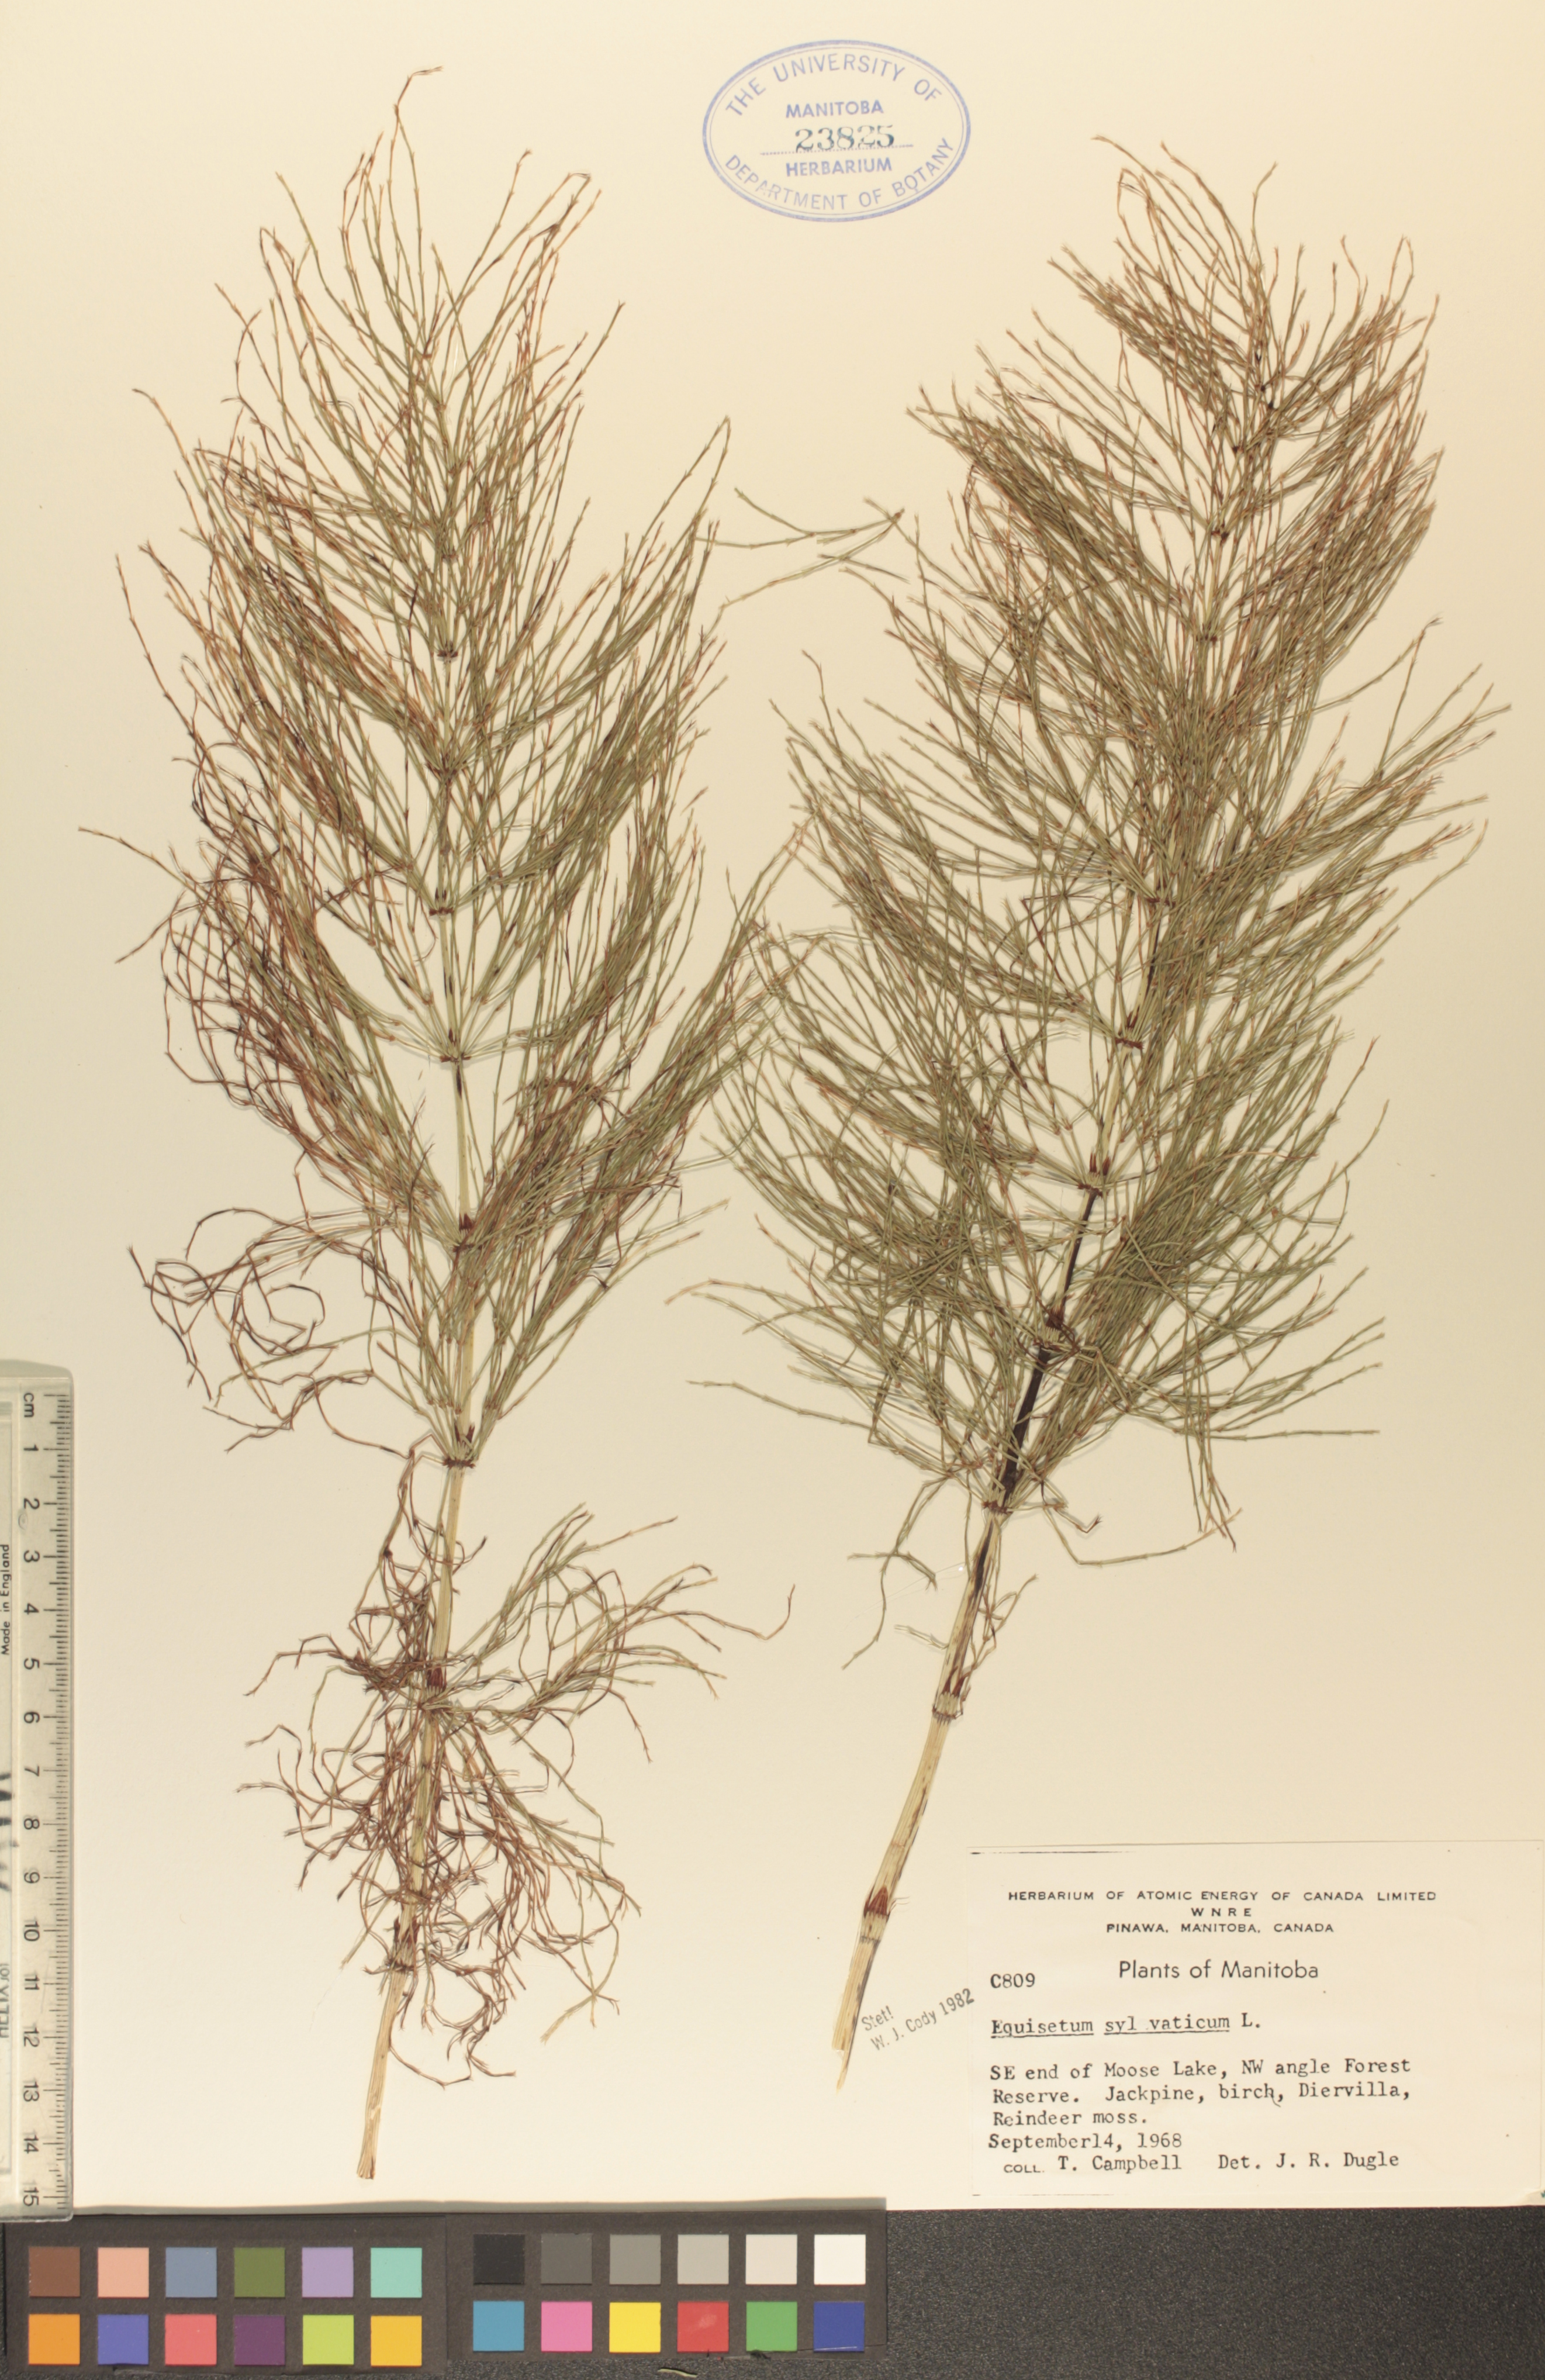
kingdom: Plantae
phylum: Tracheophyta
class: Polypodiopsida
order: Equisetales
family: Equisetaceae
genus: Equisetum
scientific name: Equisetum sylvaticum
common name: Wood horsetail
